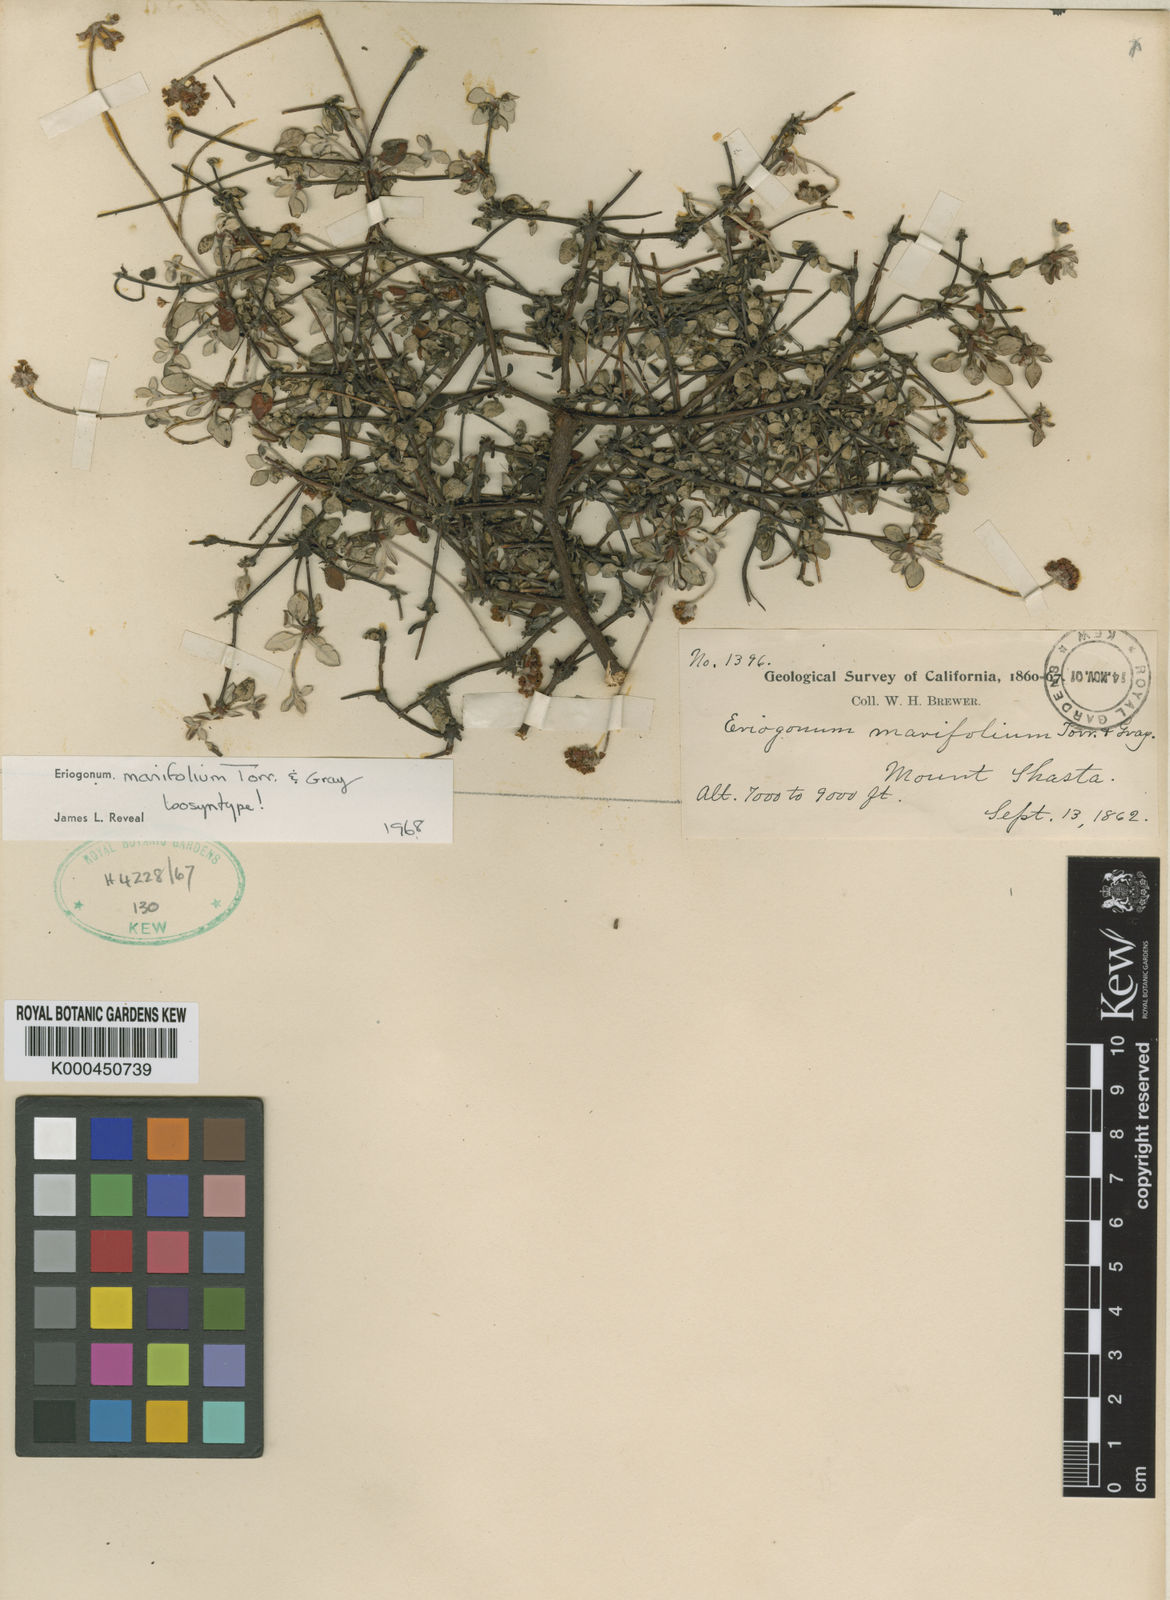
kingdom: Plantae
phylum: Tracheophyta
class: Magnoliopsida
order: Caryophyllales
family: Polygonaceae
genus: Eriogonum
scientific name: Eriogonum marifolium
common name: Marum-leaf wild buckwheat
